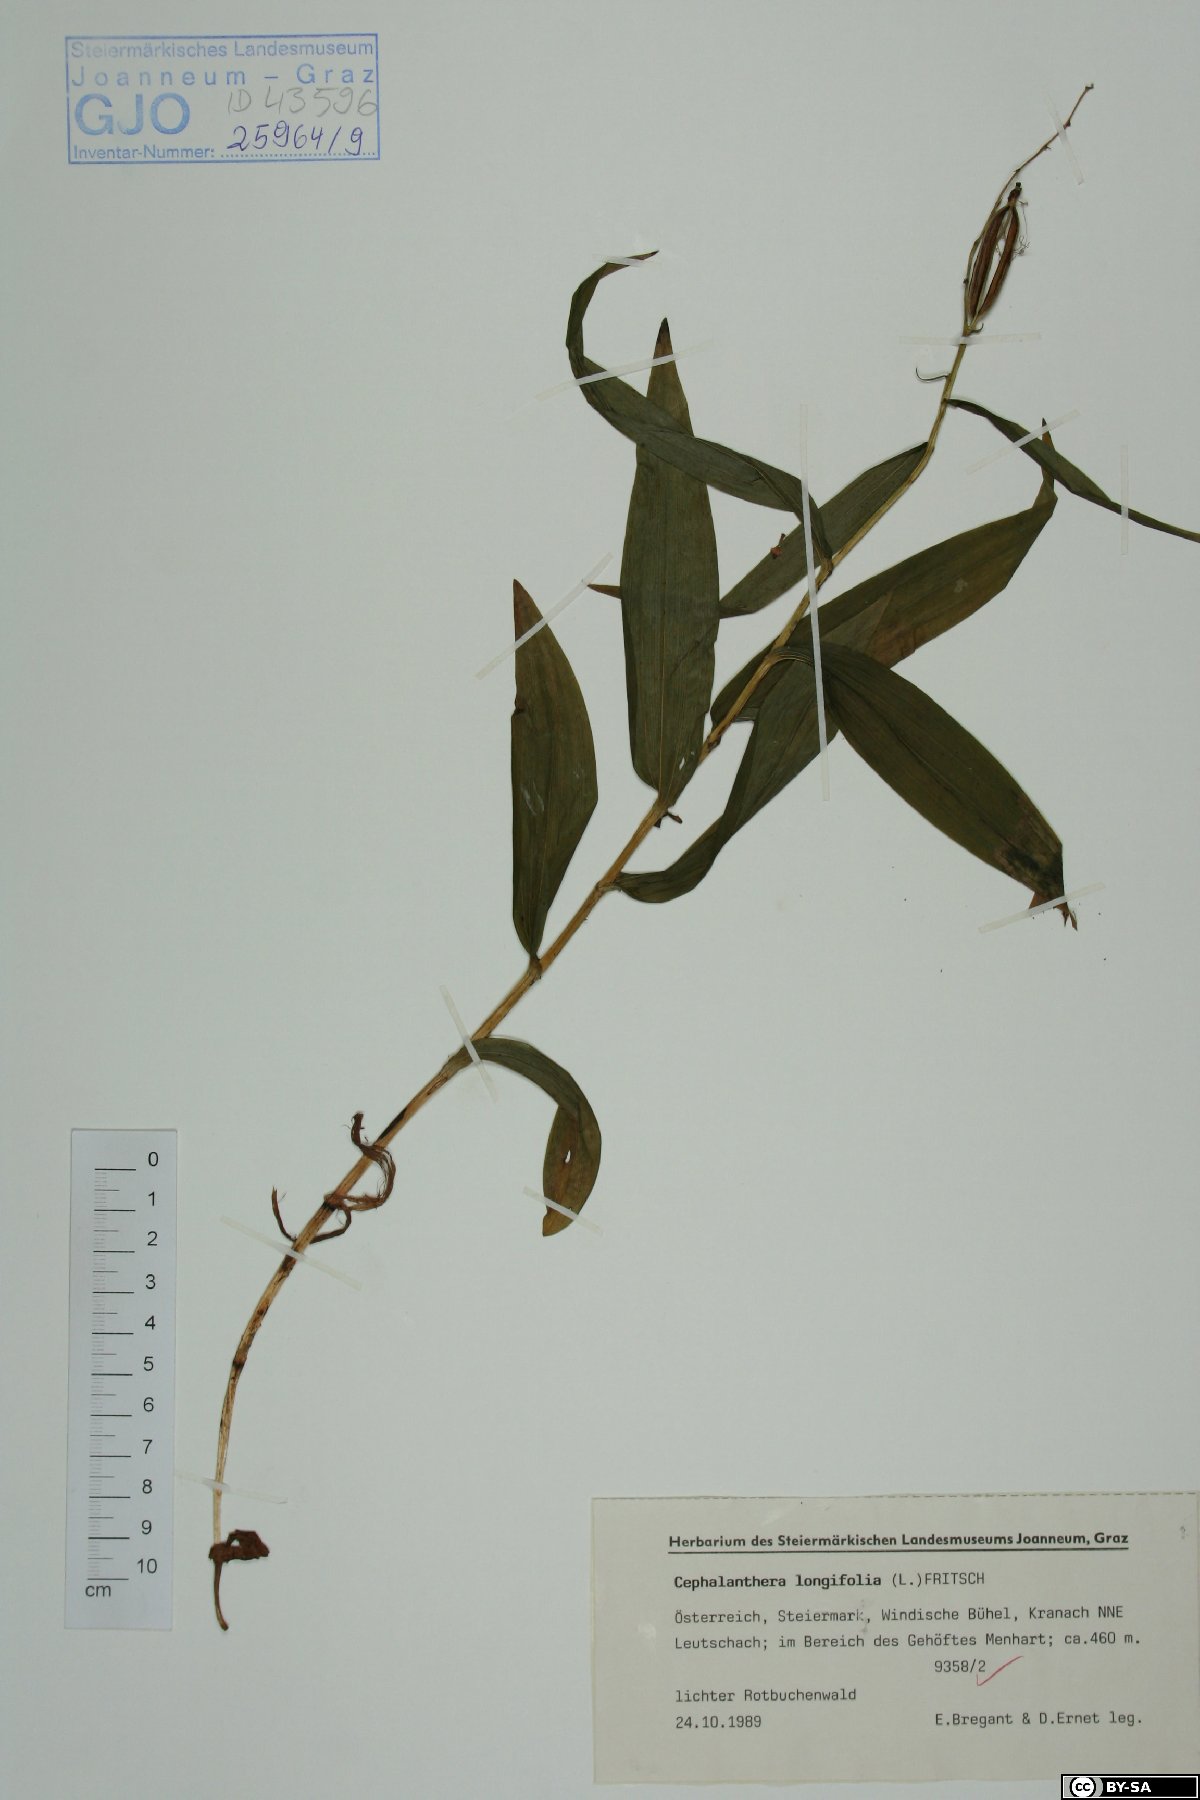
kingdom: Plantae
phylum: Tracheophyta
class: Liliopsida
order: Asparagales
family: Orchidaceae
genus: Cephalanthera
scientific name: Cephalanthera longifolia
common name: Narrow-leaved helleborine
